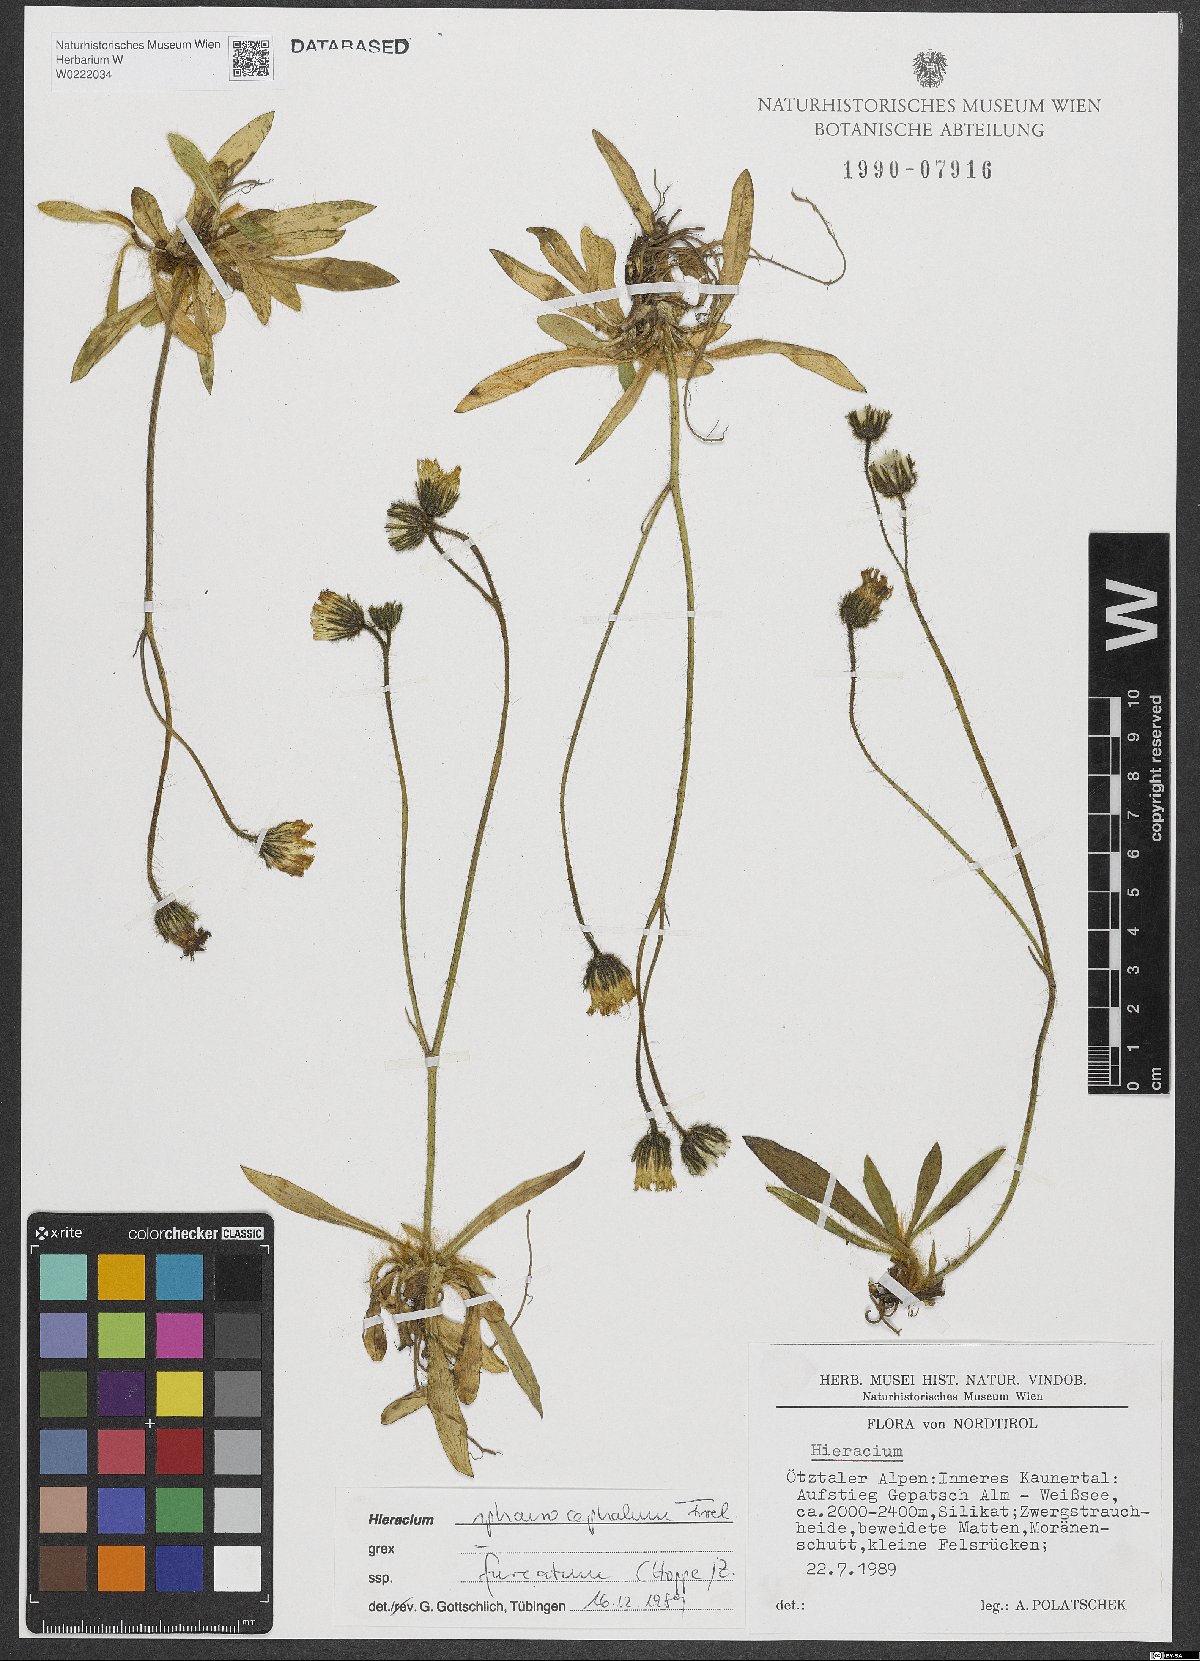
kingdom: Plantae
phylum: Tracheophyta
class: Magnoliopsida
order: Asterales
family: Asteraceae
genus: Pilosella
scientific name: Pilosella sphaerocephala
